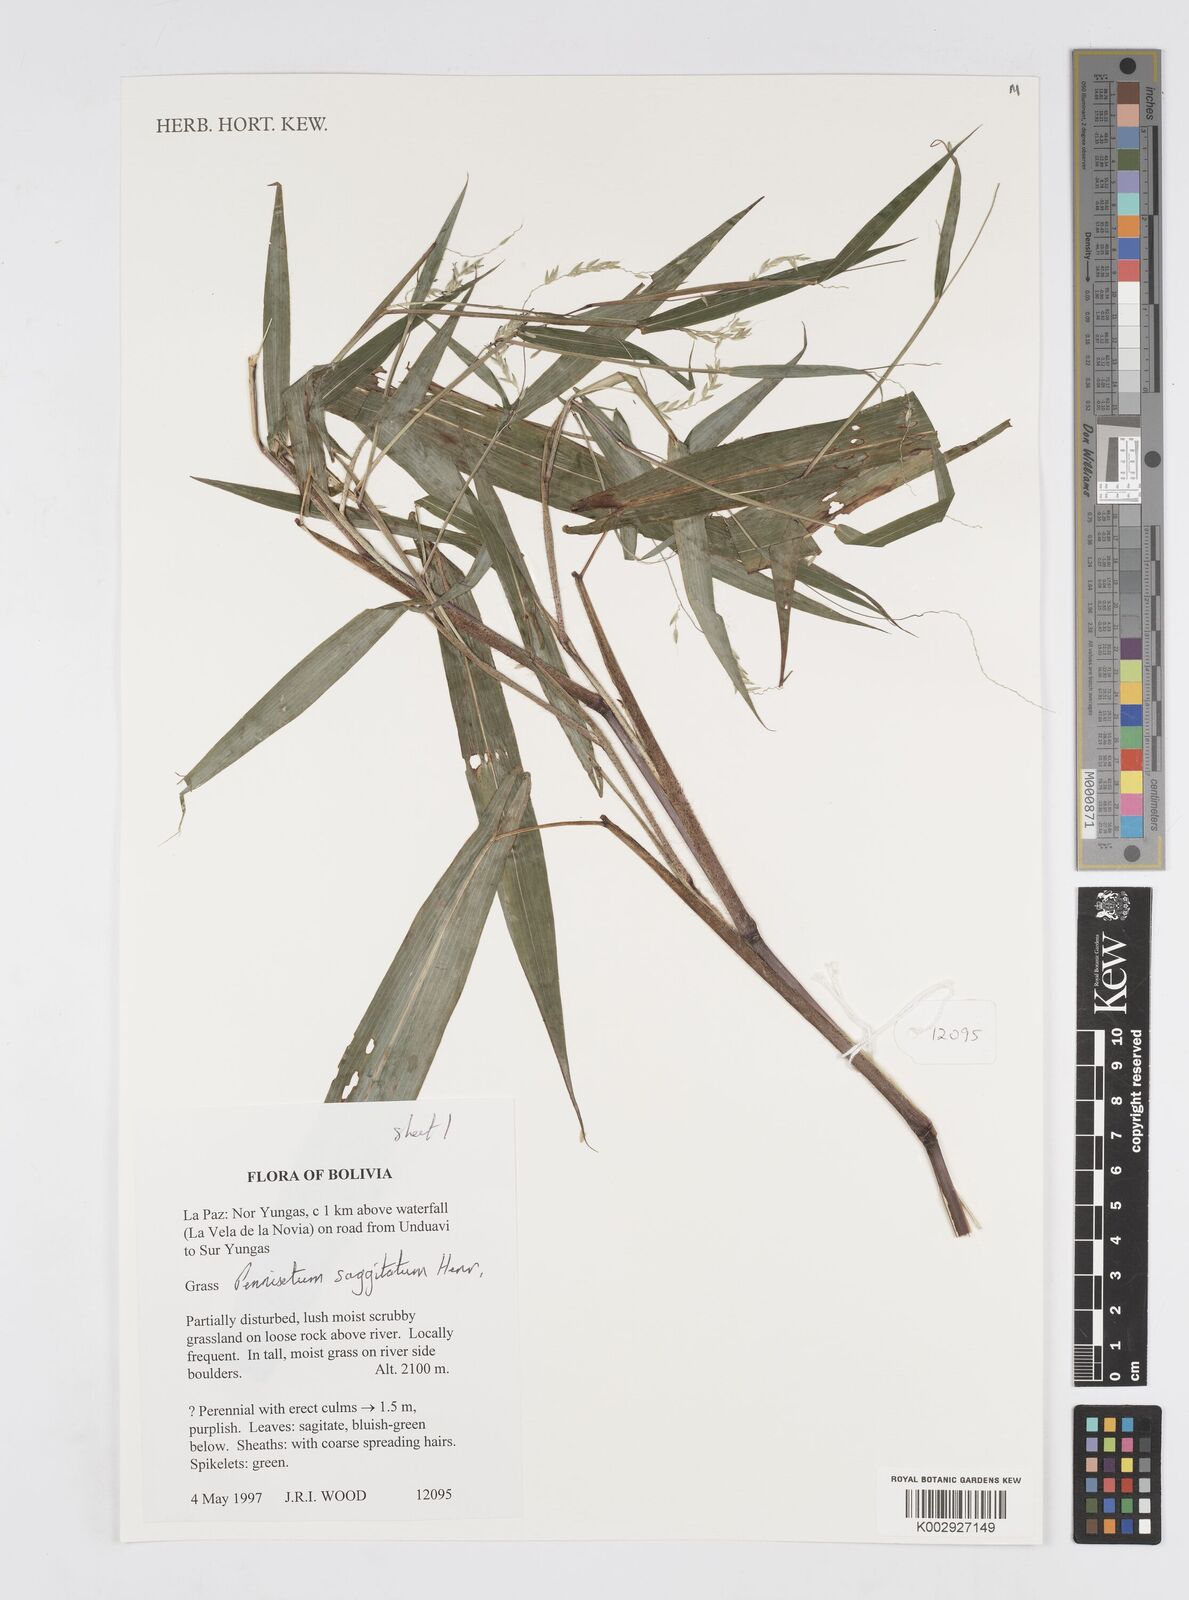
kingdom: Plantae
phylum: Tracheophyta
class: Liliopsida
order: Poales
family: Poaceae
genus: Cenchrus
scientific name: Cenchrus sagittatus
